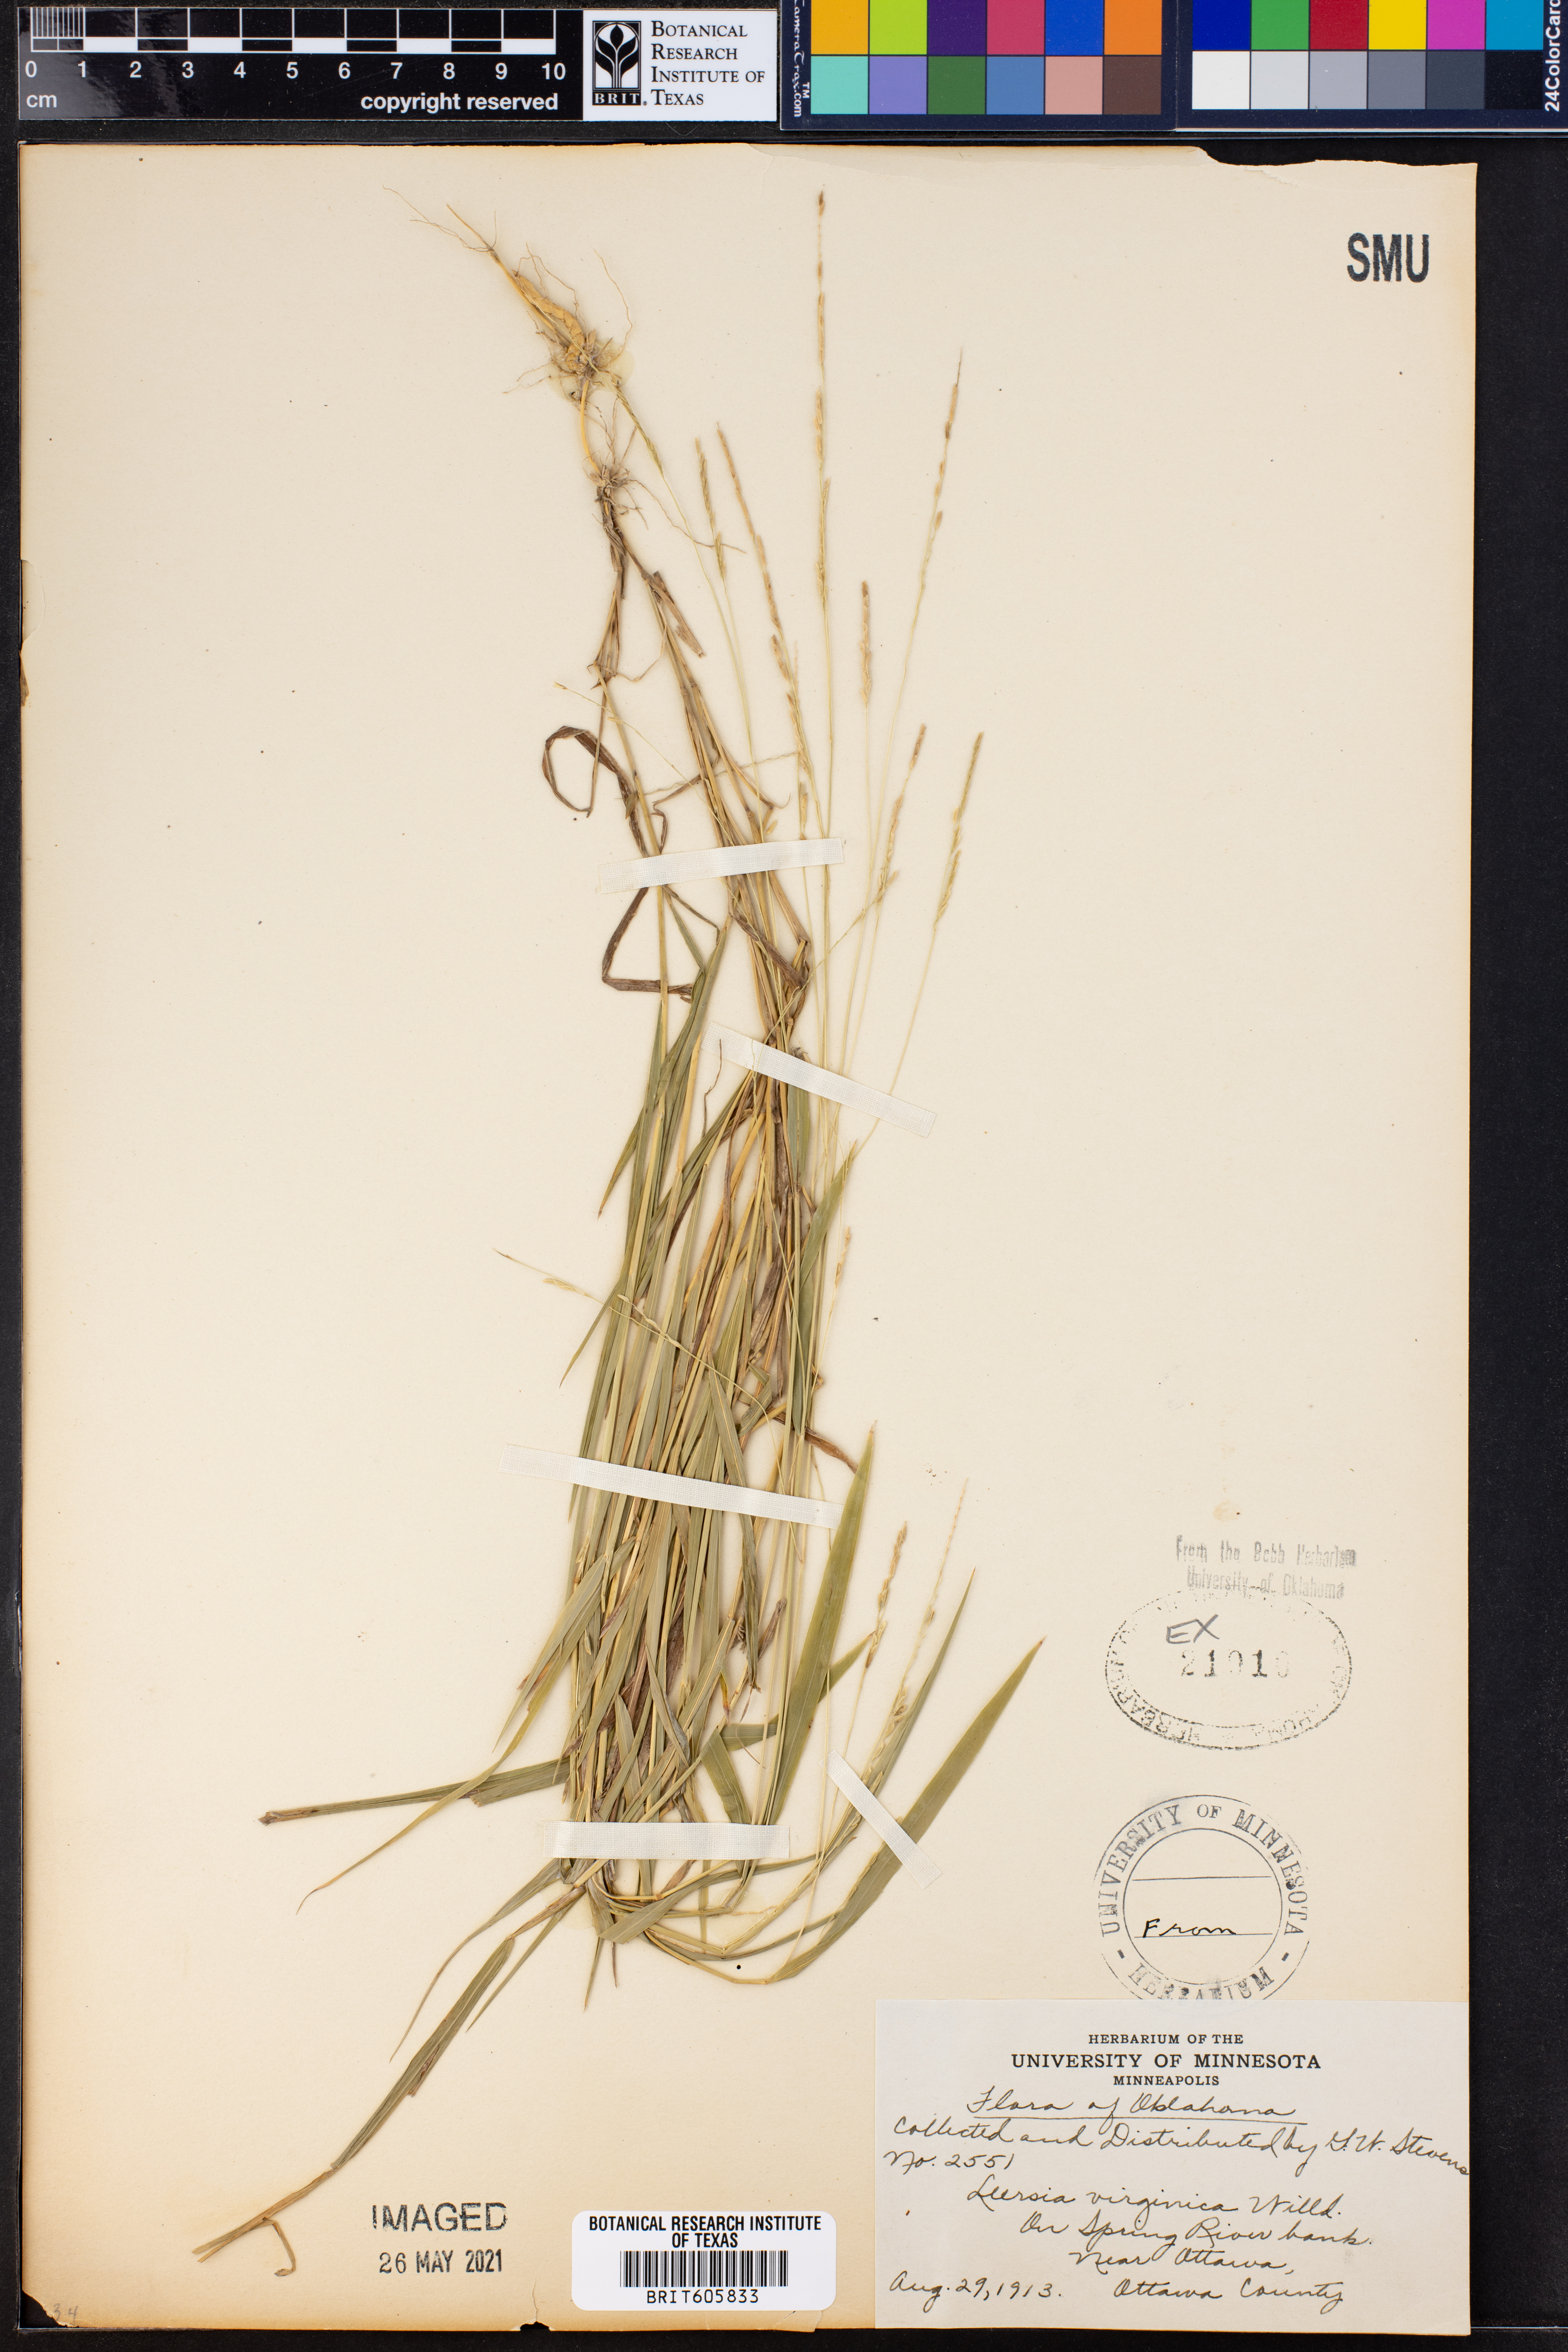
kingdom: Plantae
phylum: Tracheophyta
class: Liliopsida
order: Poales
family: Poaceae
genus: Leersia
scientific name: Leersia virginica
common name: White cutgrass
